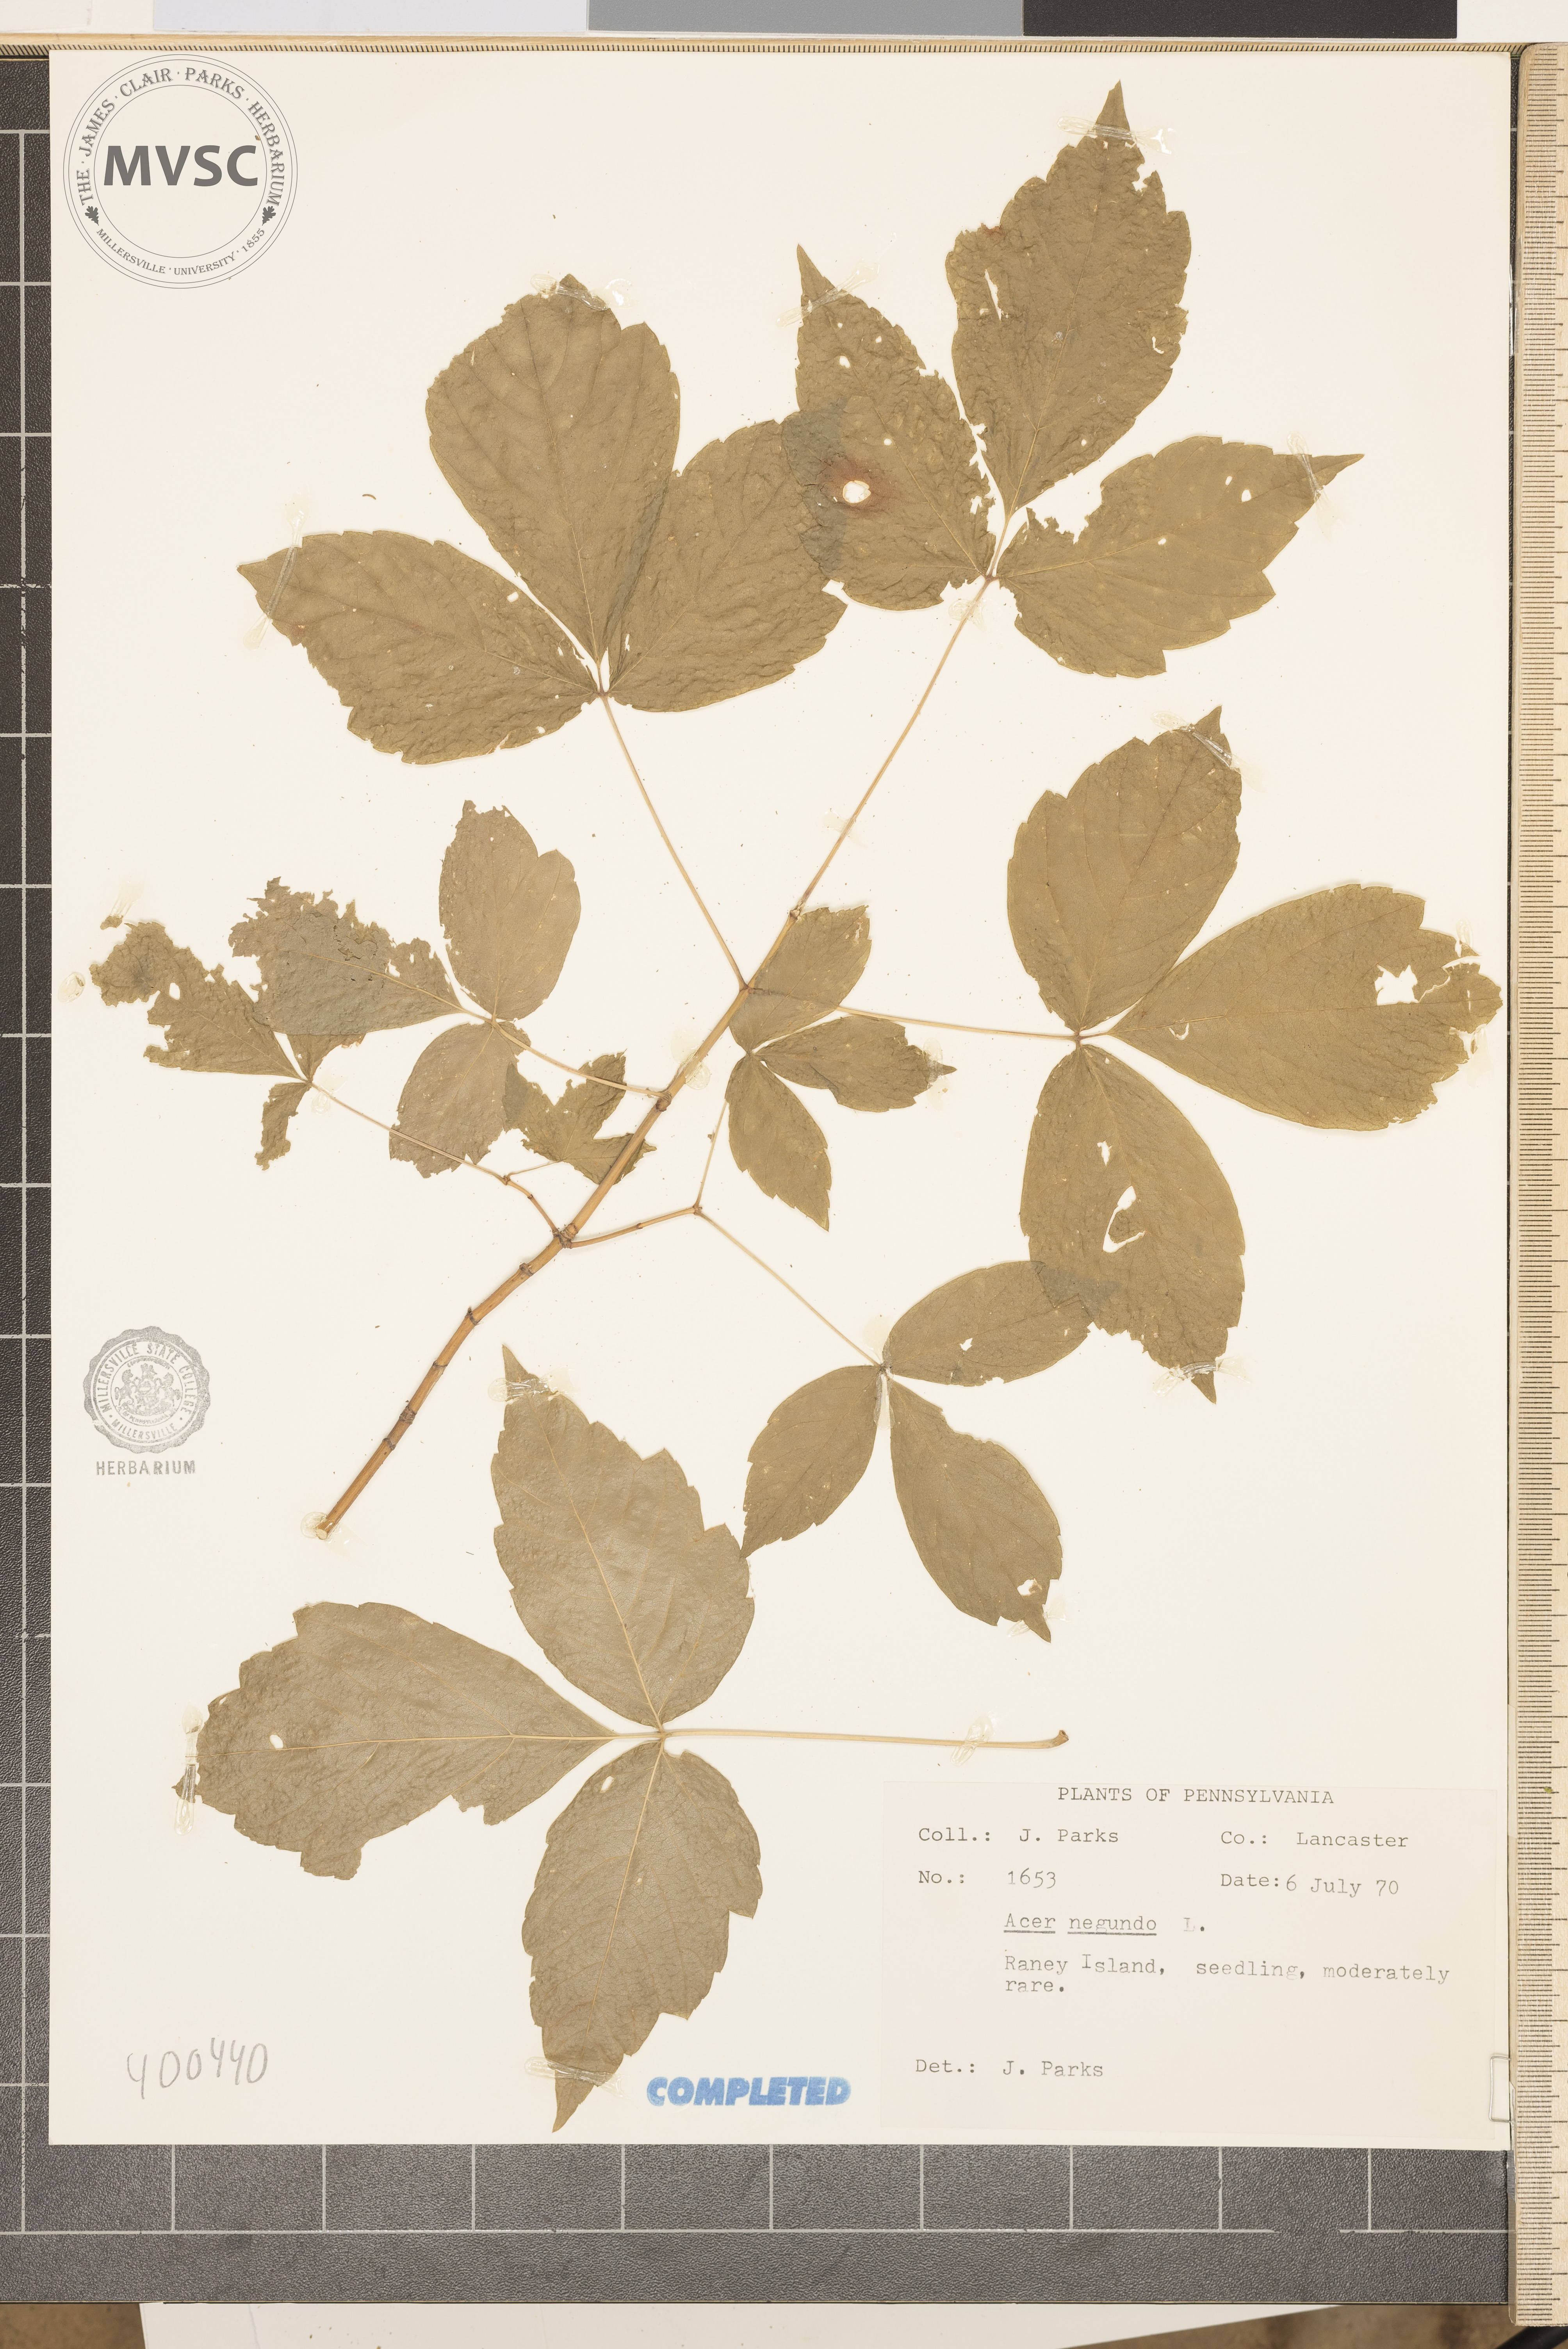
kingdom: Plantae
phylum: Tracheophyta
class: Magnoliopsida
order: Sapindales
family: Sapindaceae
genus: Acer
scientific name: Acer negundo
